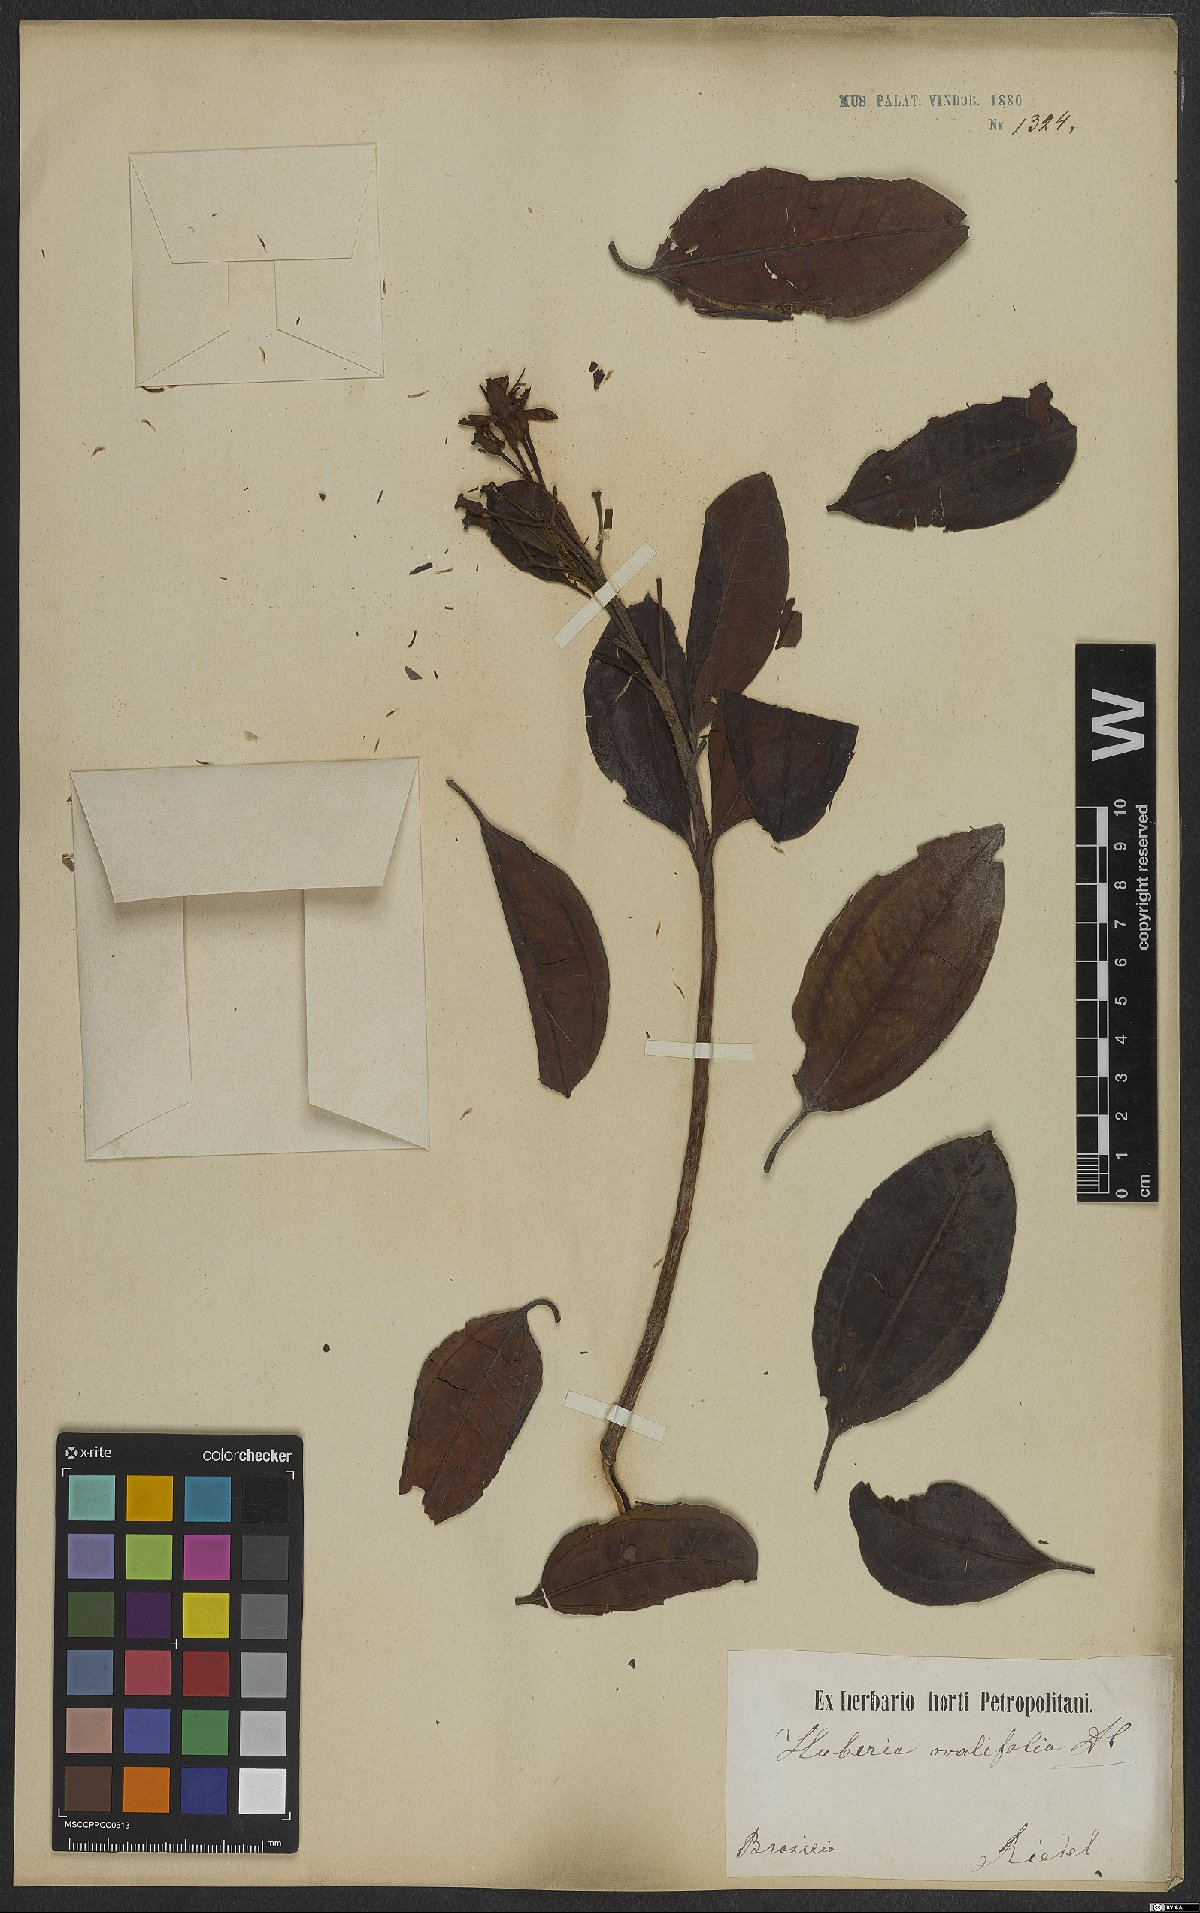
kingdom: Plantae
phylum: Tracheophyta
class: Magnoliopsida
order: Myrtales
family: Melastomataceae
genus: Huberia
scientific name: Huberia ovalifolia
